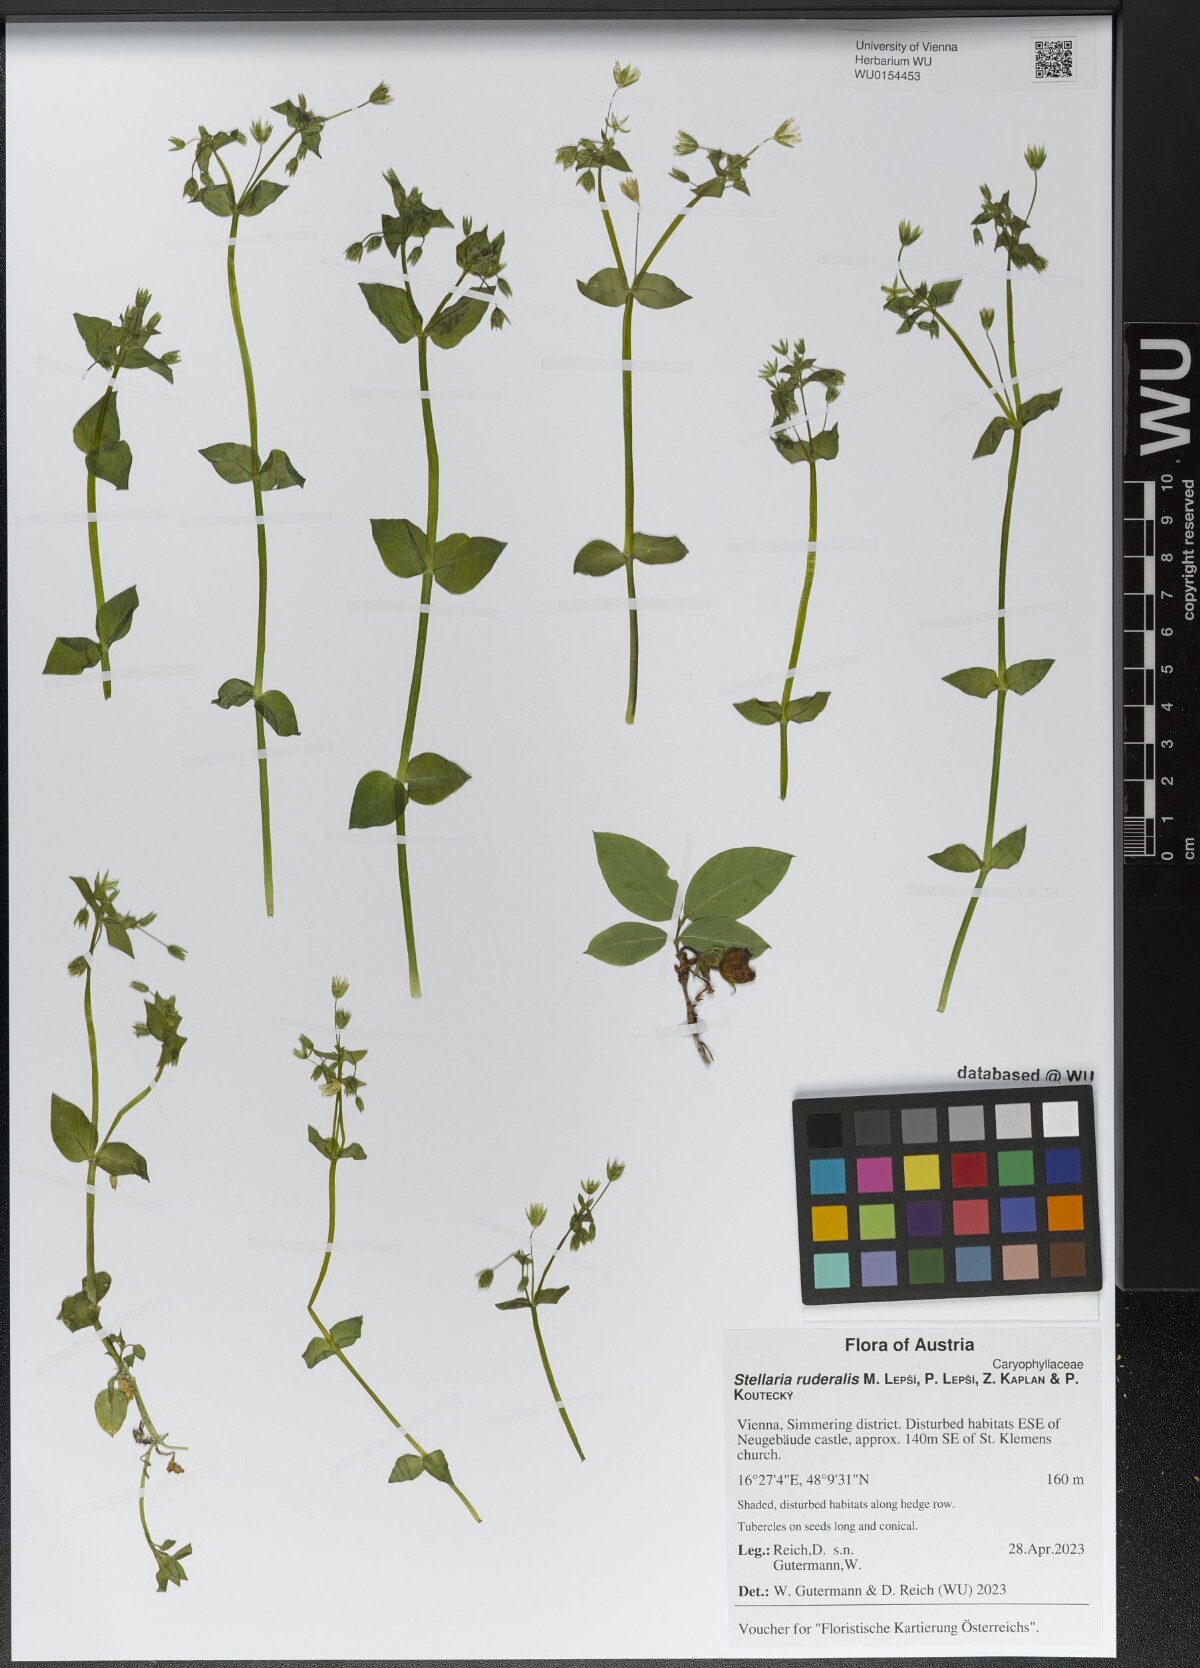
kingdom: Plantae
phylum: Tracheophyta
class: Magnoliopsida
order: Caryophyllales
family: Caryophyllaceae
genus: Stellaria
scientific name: Stellaria ruderalis
